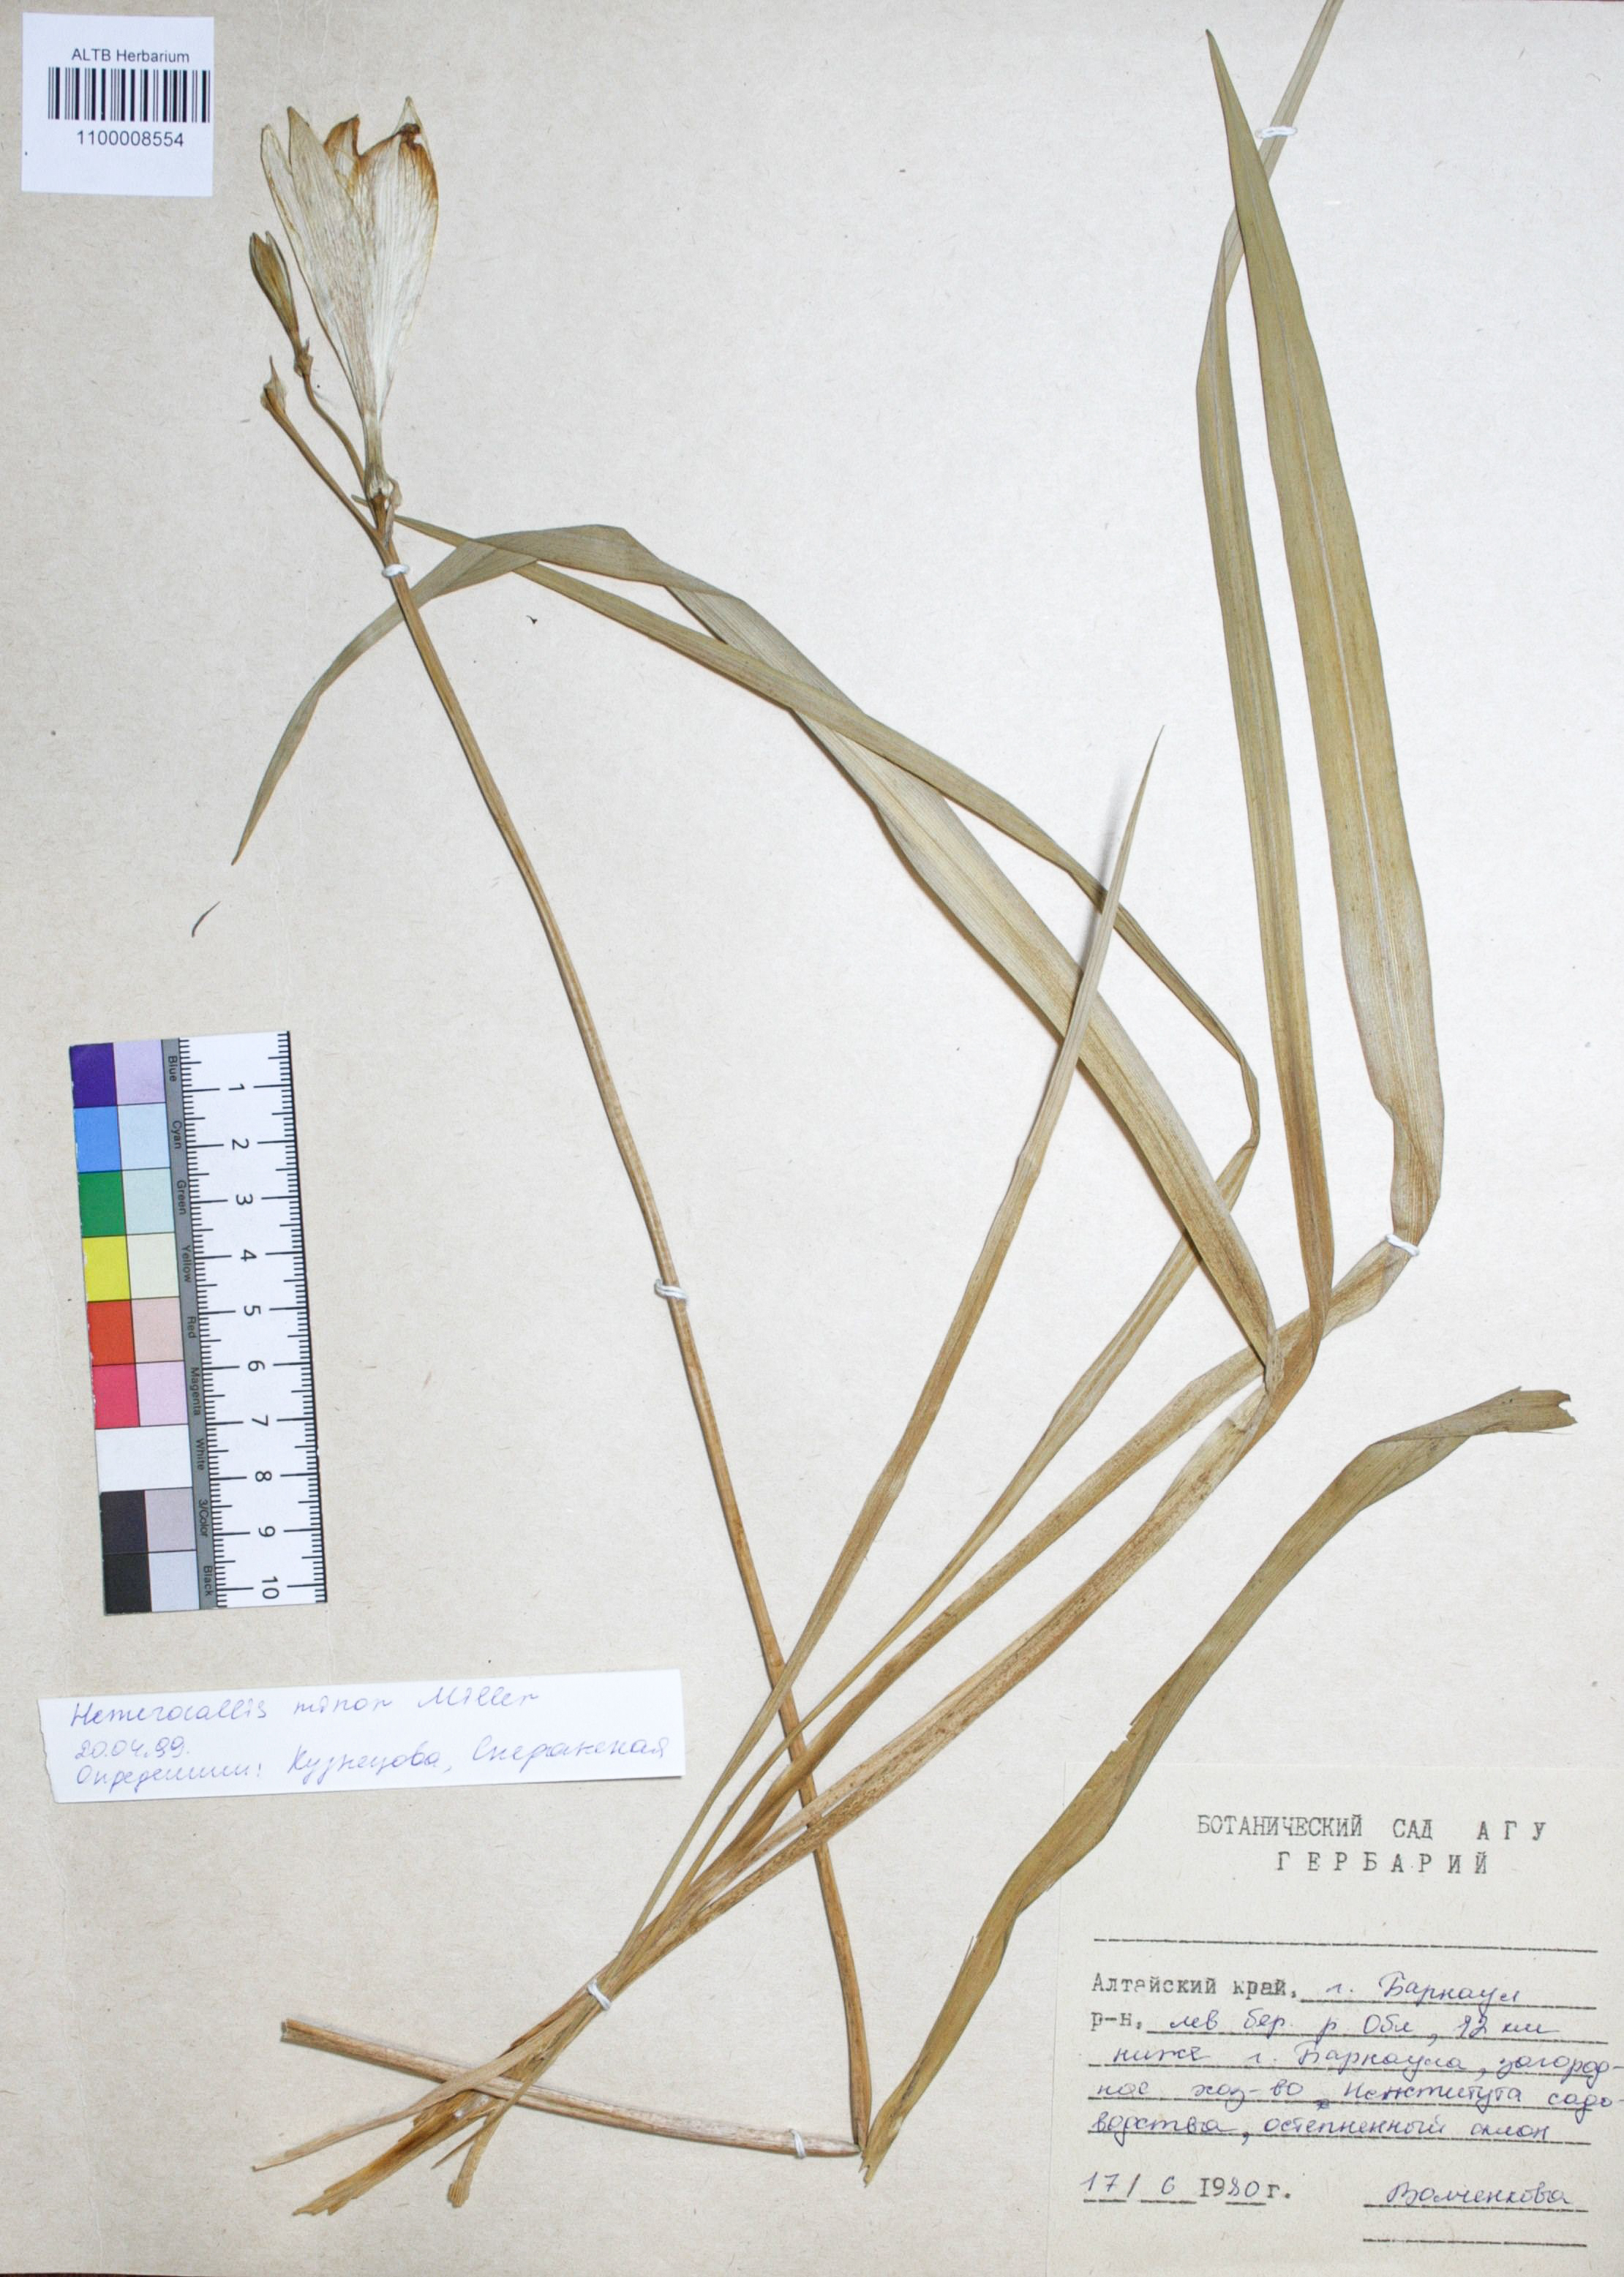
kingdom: Plantae
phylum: Tracheophyta
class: Liliopsida
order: Asparagales
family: Asphodelaceae
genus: Hemerocallis
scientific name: Hemerocallis minor
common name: Small daylily
